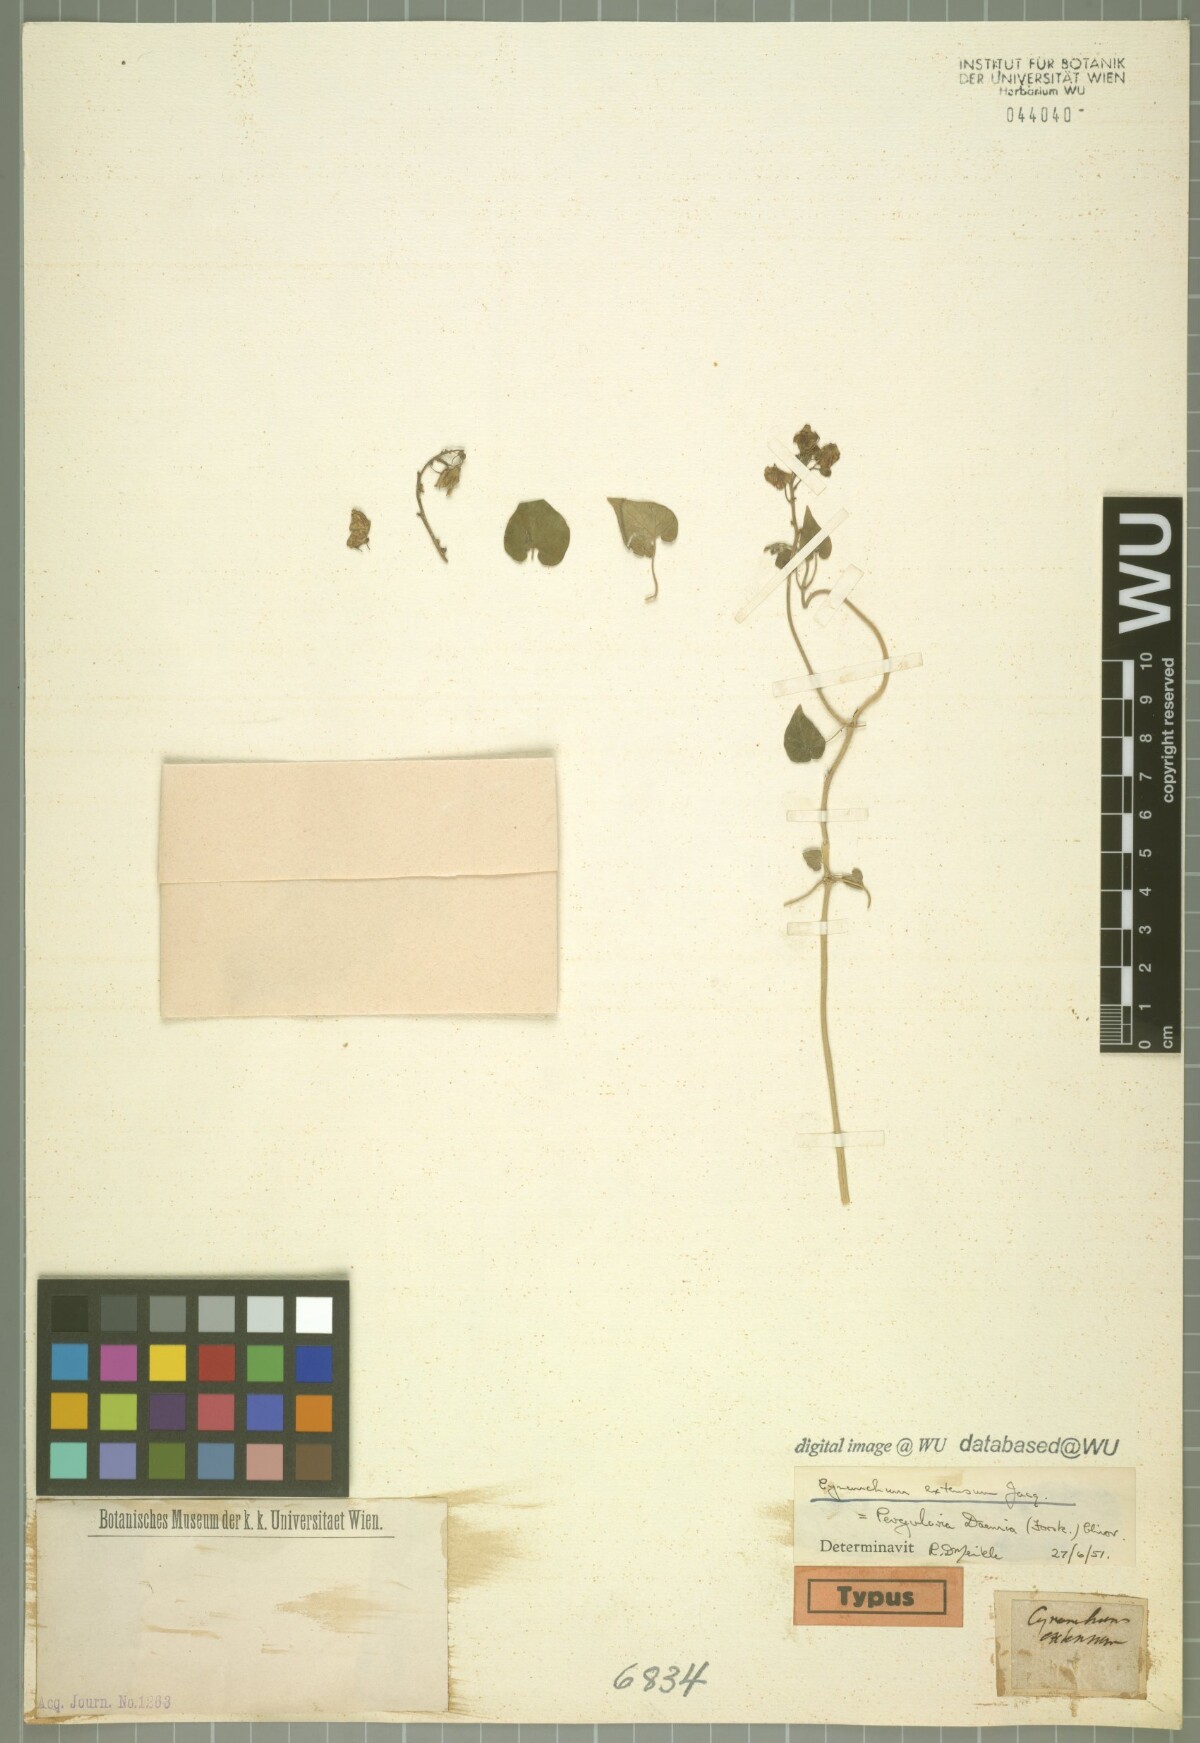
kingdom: Plantae
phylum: Tracheophyta
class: Magnoliopsida
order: Gentianales
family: Apocynaceae
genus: Pergularia
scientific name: Pergularia daemia
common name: Trellis-vine
